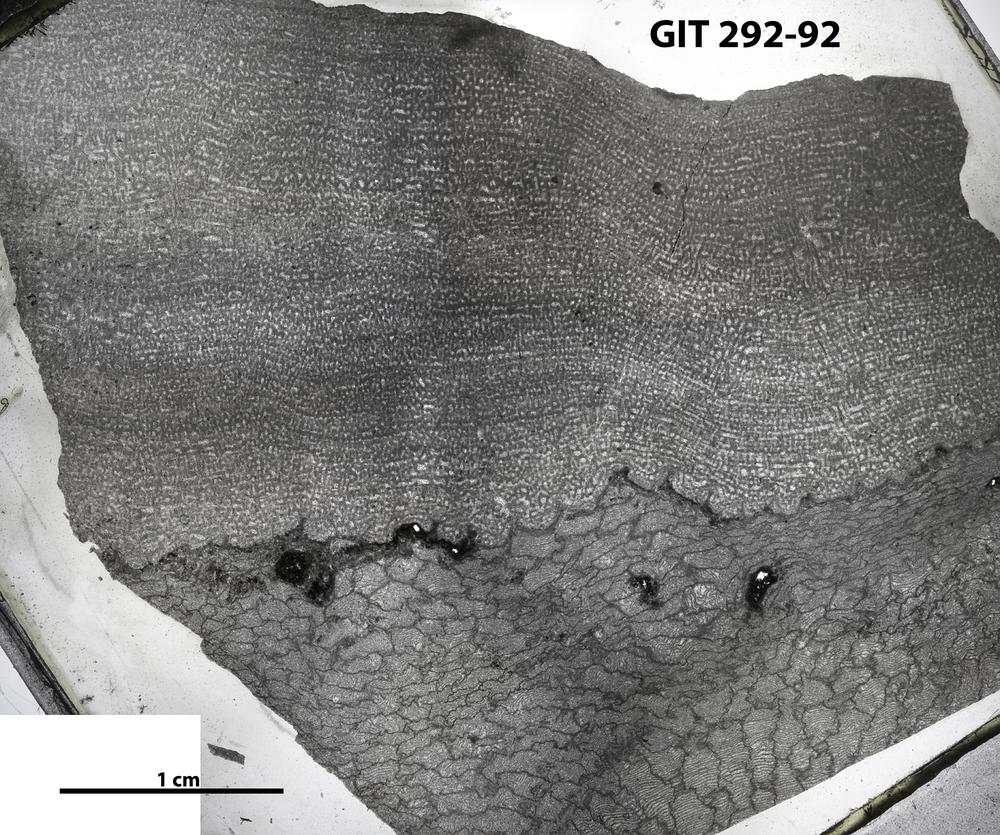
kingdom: Animalia
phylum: Porifera
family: Stromatoporidae
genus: Stromatopora
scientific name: Stromatopora
